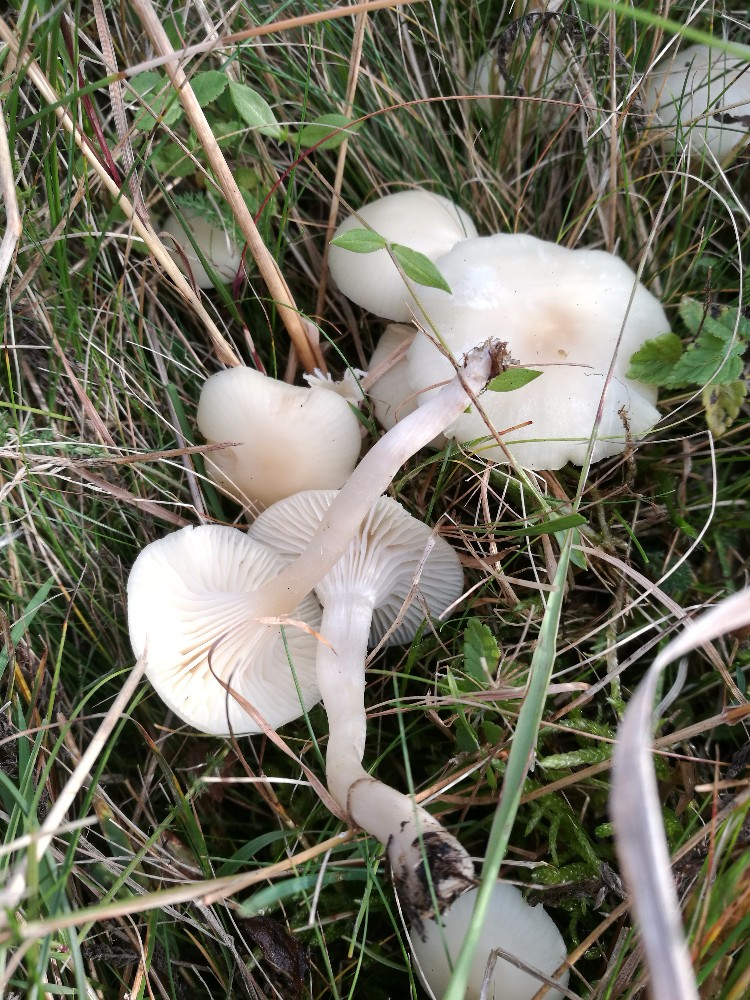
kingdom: Fungi
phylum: Basidiomycota
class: Agaricomycetes
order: Agaricales
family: Hygrophoraceae
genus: Cuphophyllus
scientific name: Cuphophyllus virgineus
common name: snehvid vokshat
